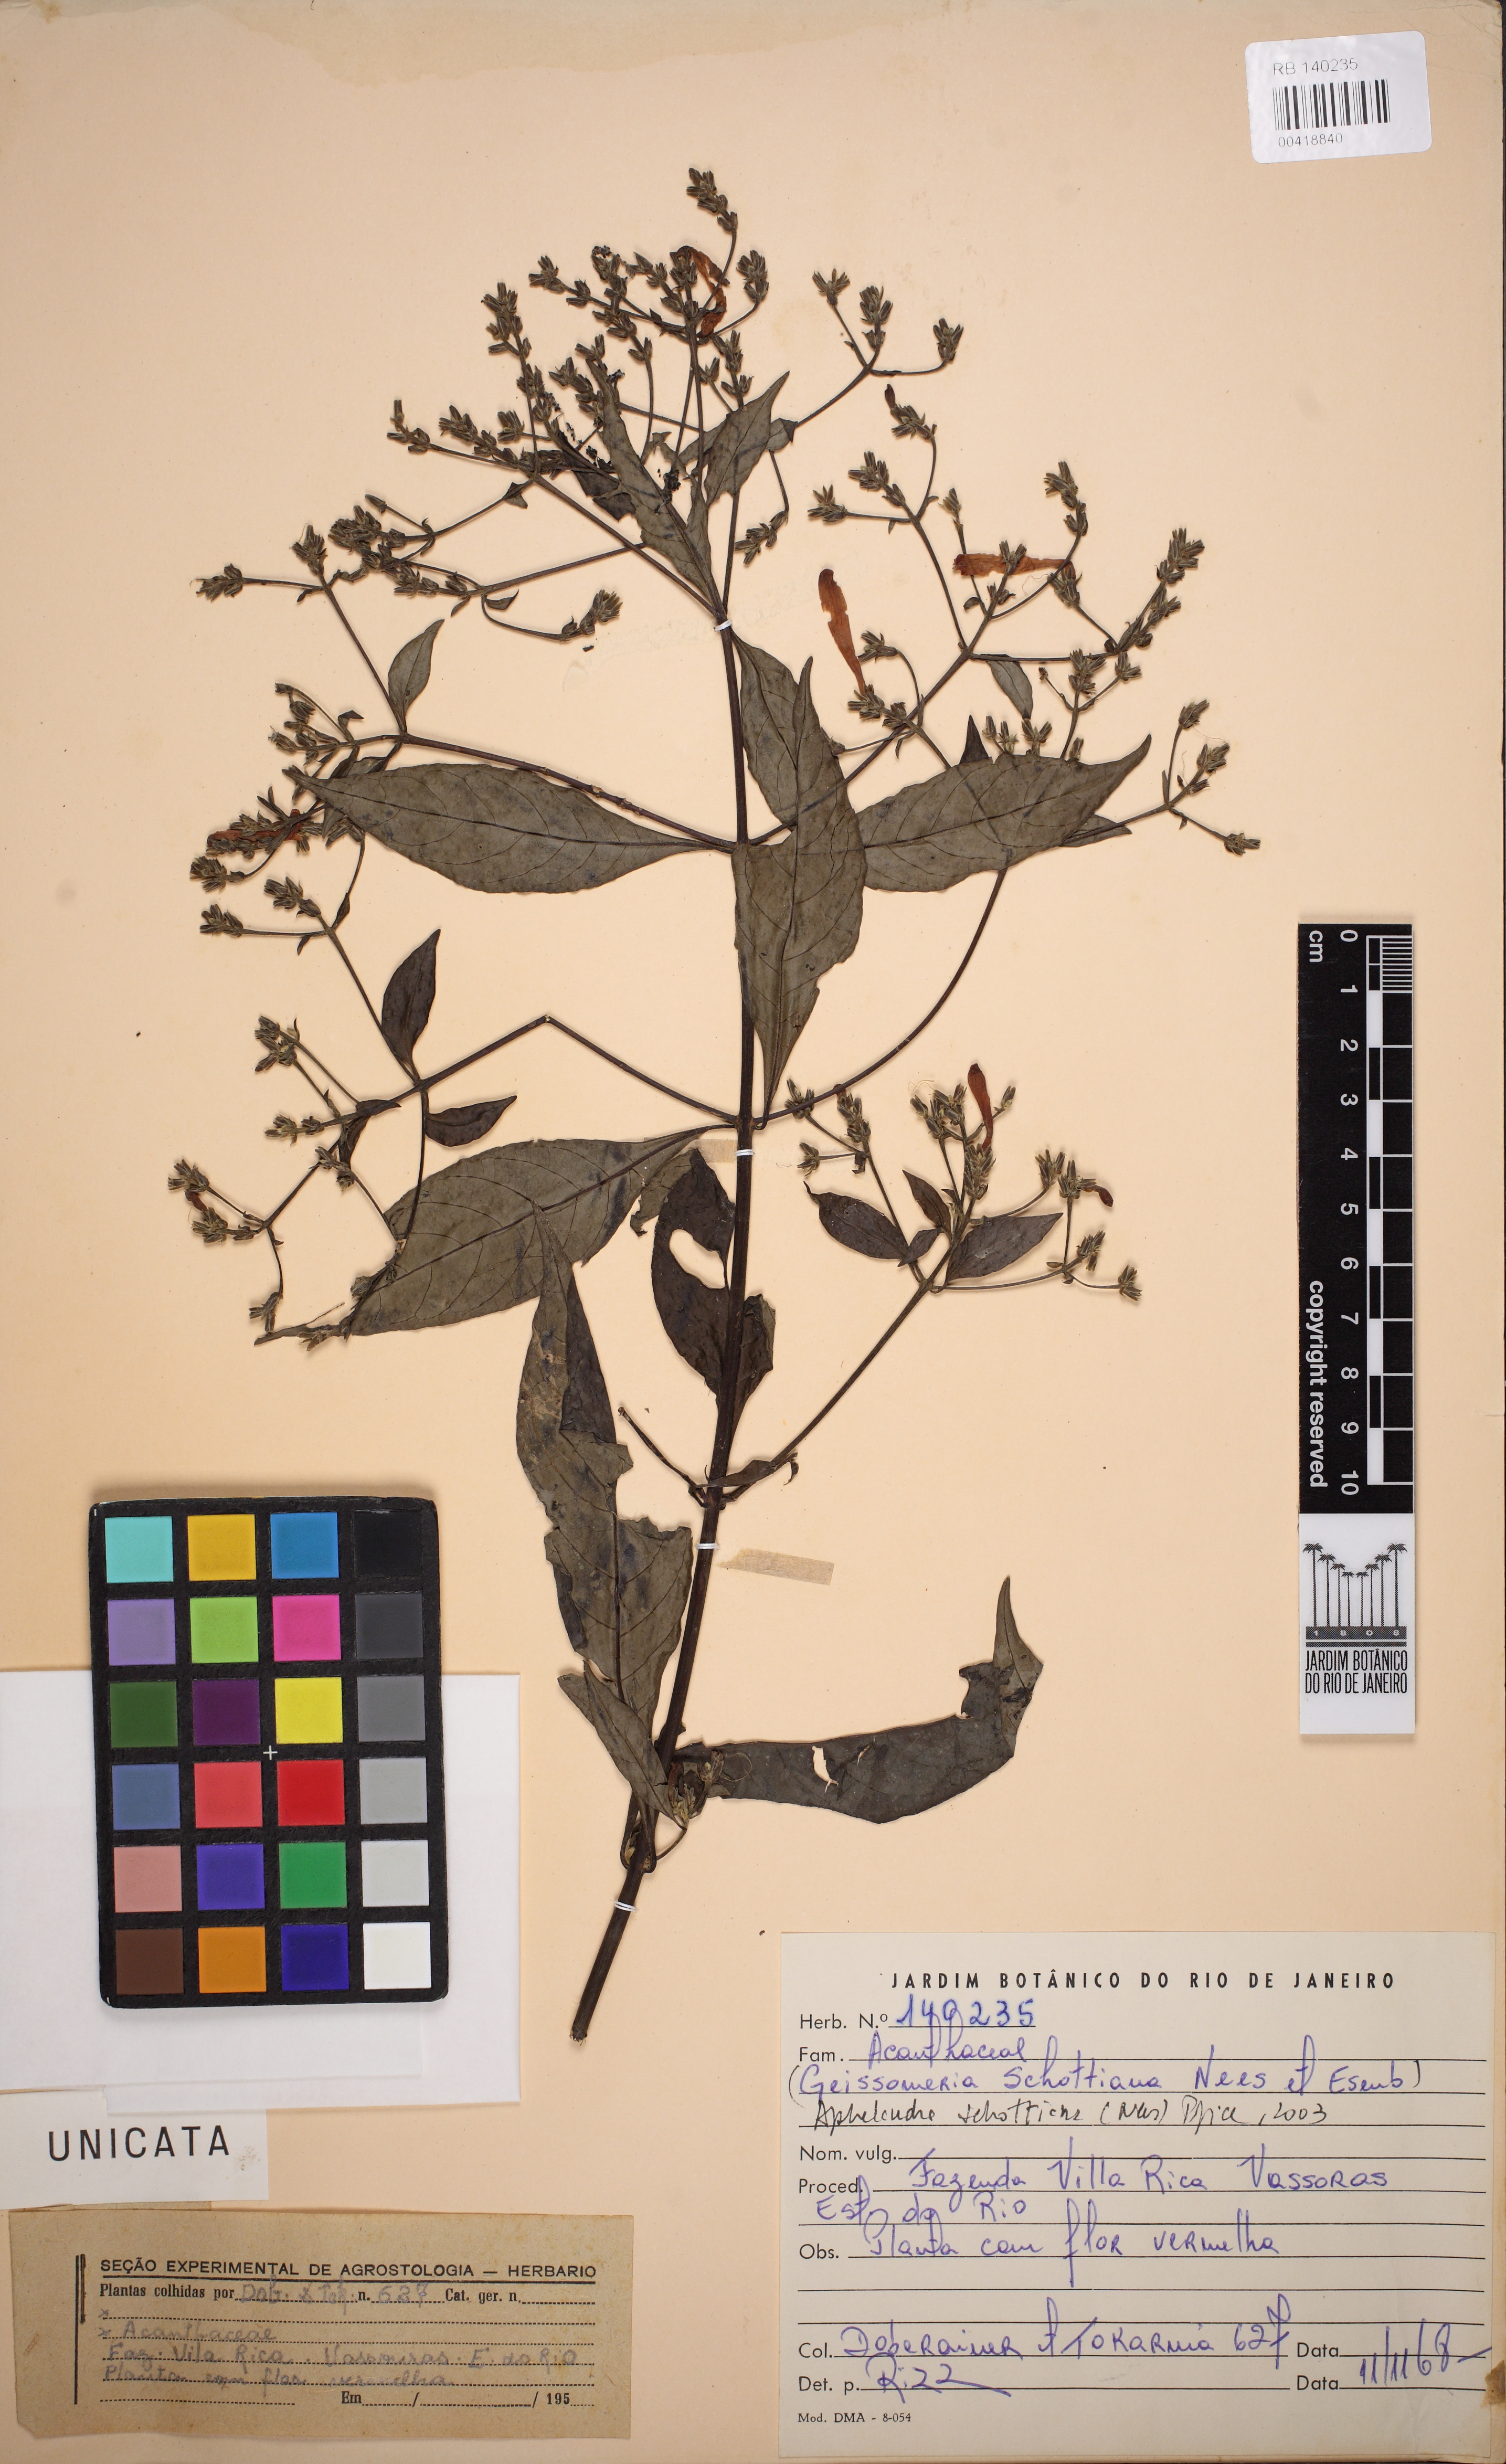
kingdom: Plantae
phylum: Tracheophyta
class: Magnoliopsida
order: Lamiales
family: Acanthaceae
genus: Aphelandra
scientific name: Aphelandra schottiana
